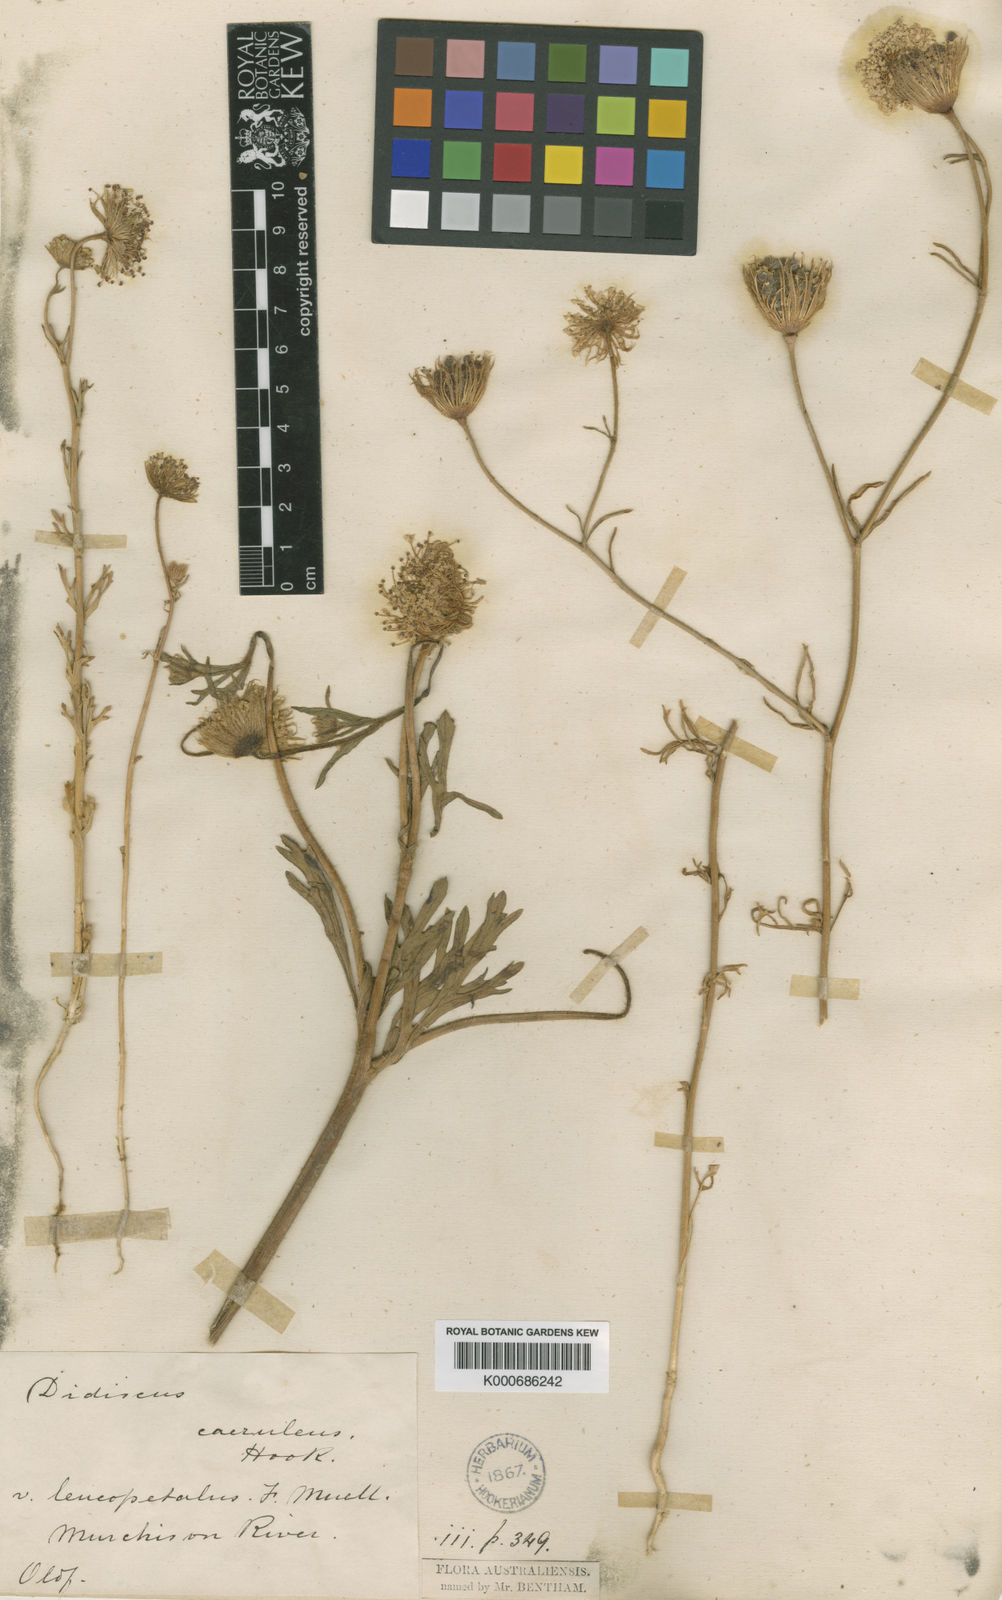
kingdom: Plantae
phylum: Tracheophyta
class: Magnoliopsida
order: Apiales
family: Araliaceae
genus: Trachymene
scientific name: Trachymene
